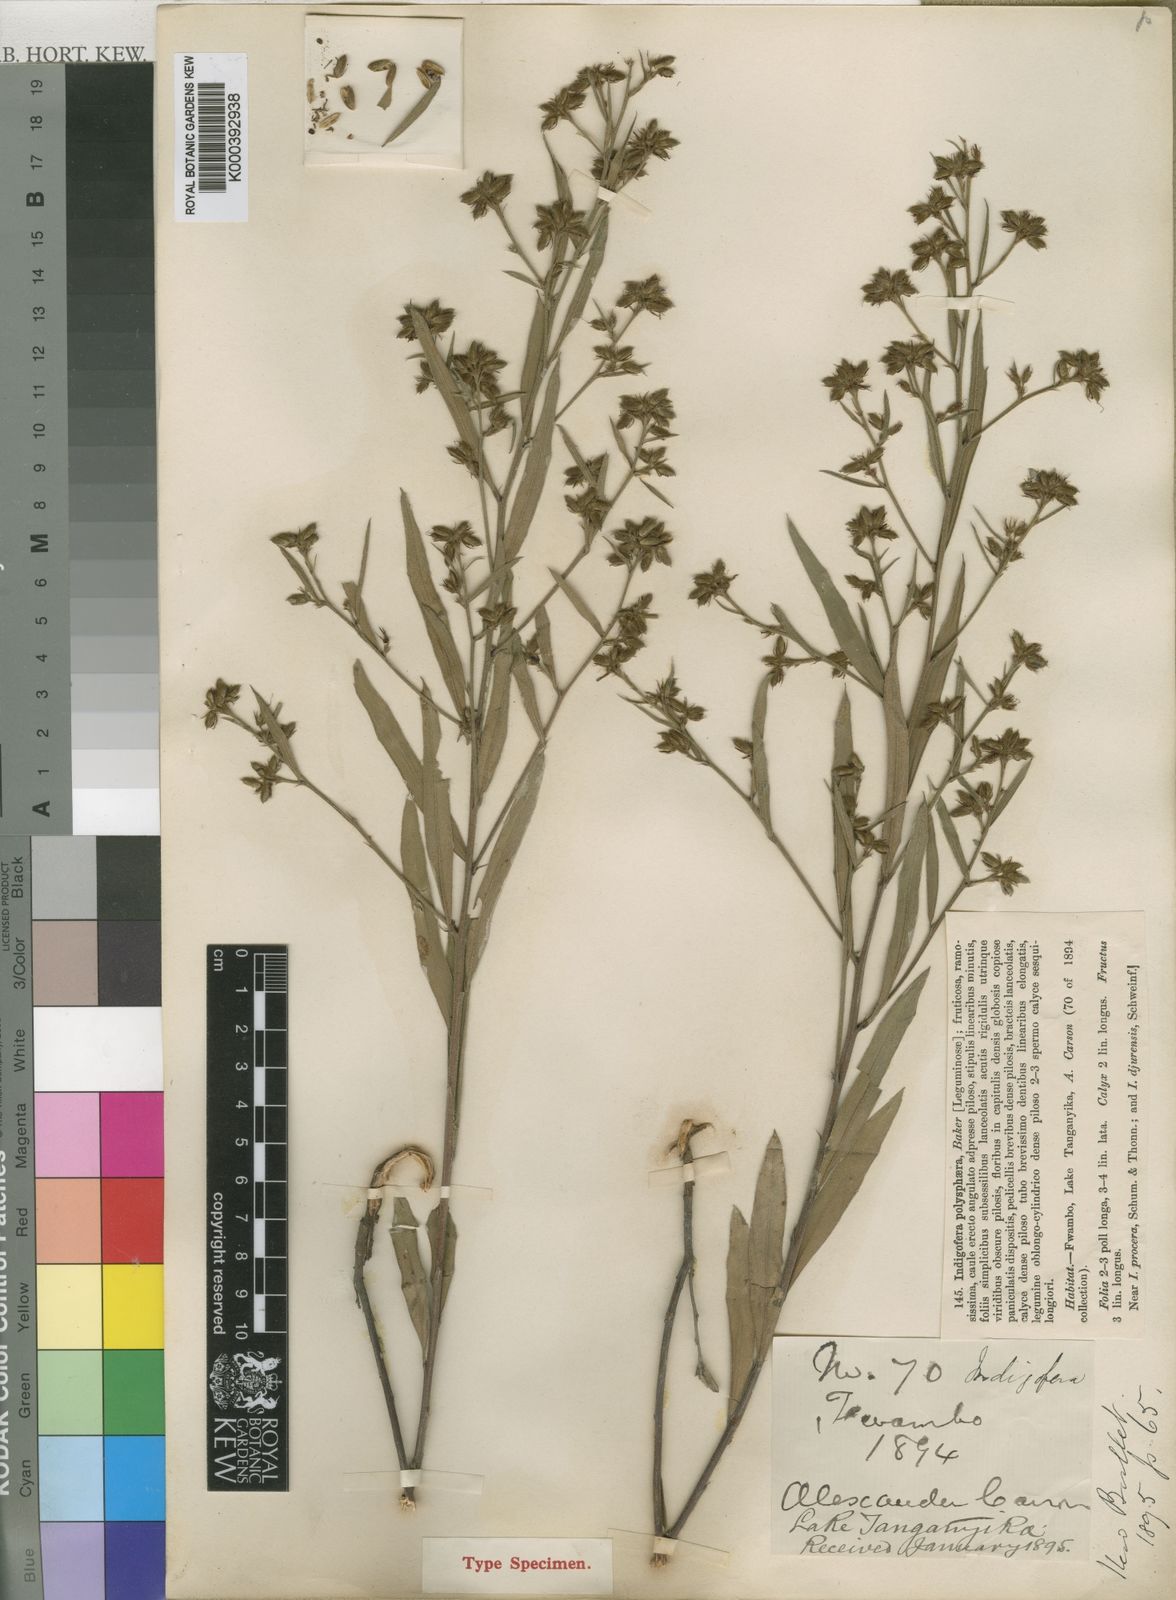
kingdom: Plantae
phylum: Tracheophyta
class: Magnoliopsida
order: Fabales
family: Fabaceae
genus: Indigofera
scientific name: Indigofera polysphaera
